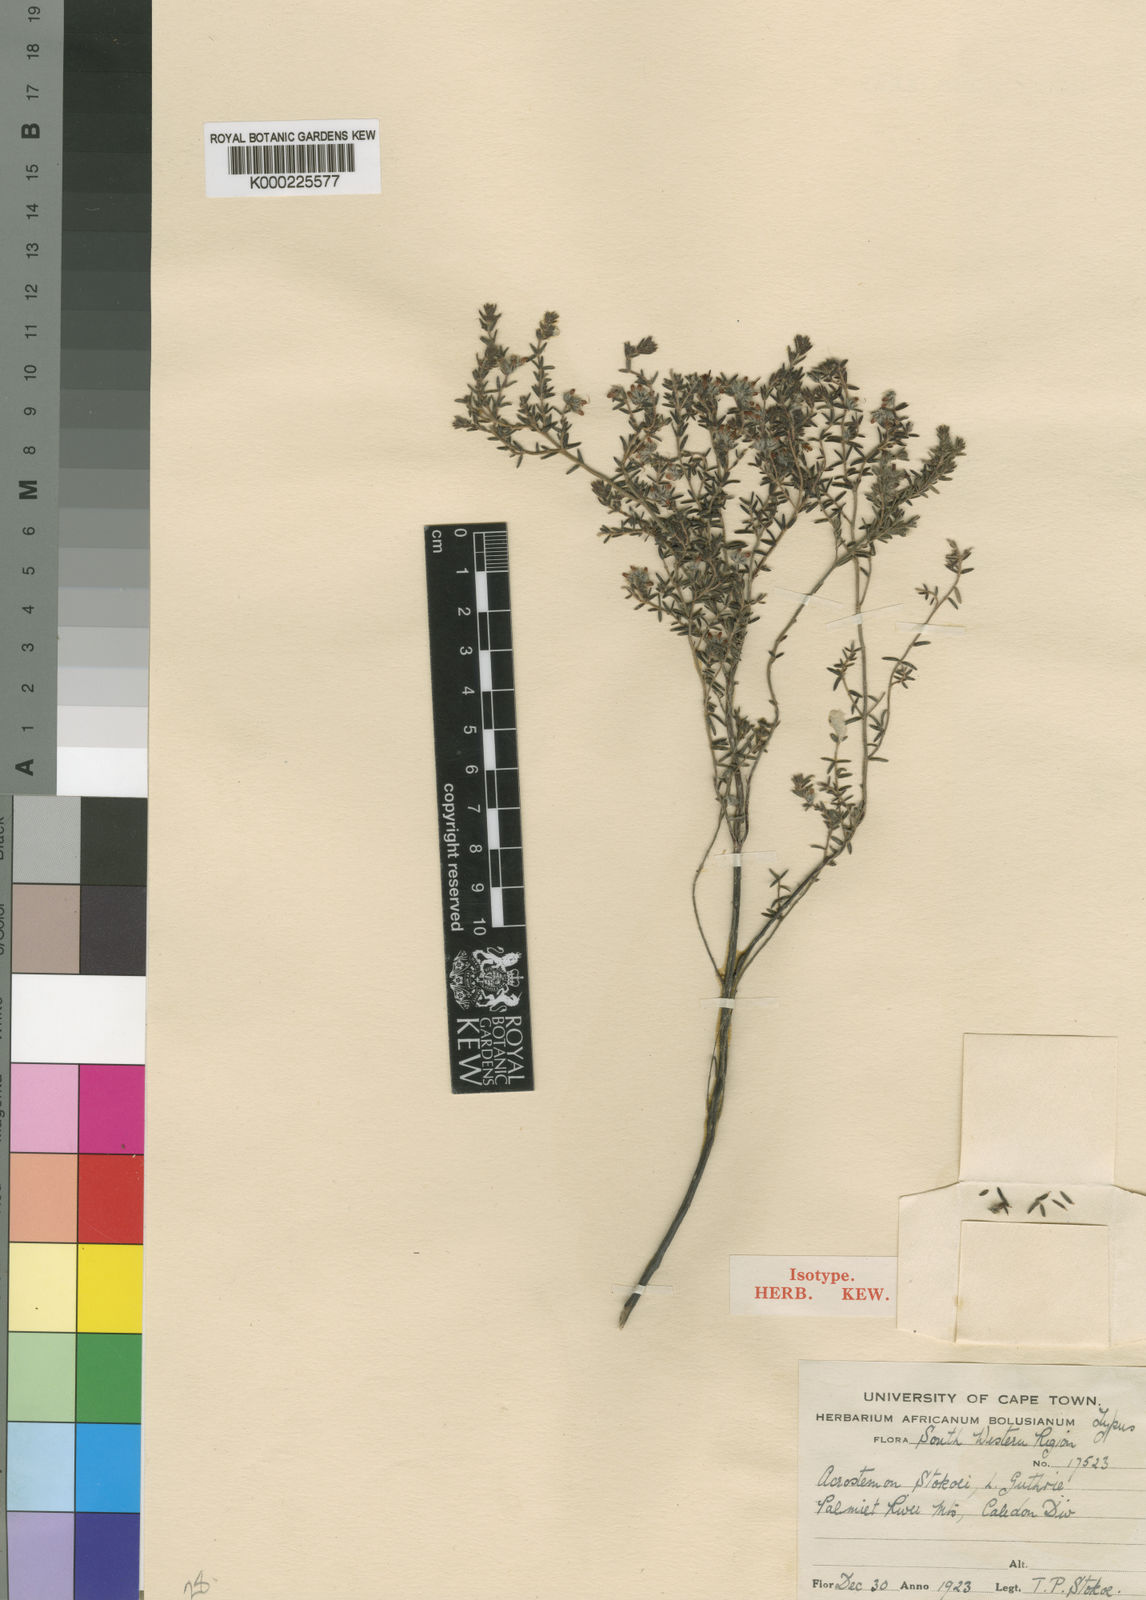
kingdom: Plantae
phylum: Tracheophyta
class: Magnoliopsida
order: Ericales
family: Ericaceae
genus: Erica
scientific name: Erica eriocephala
